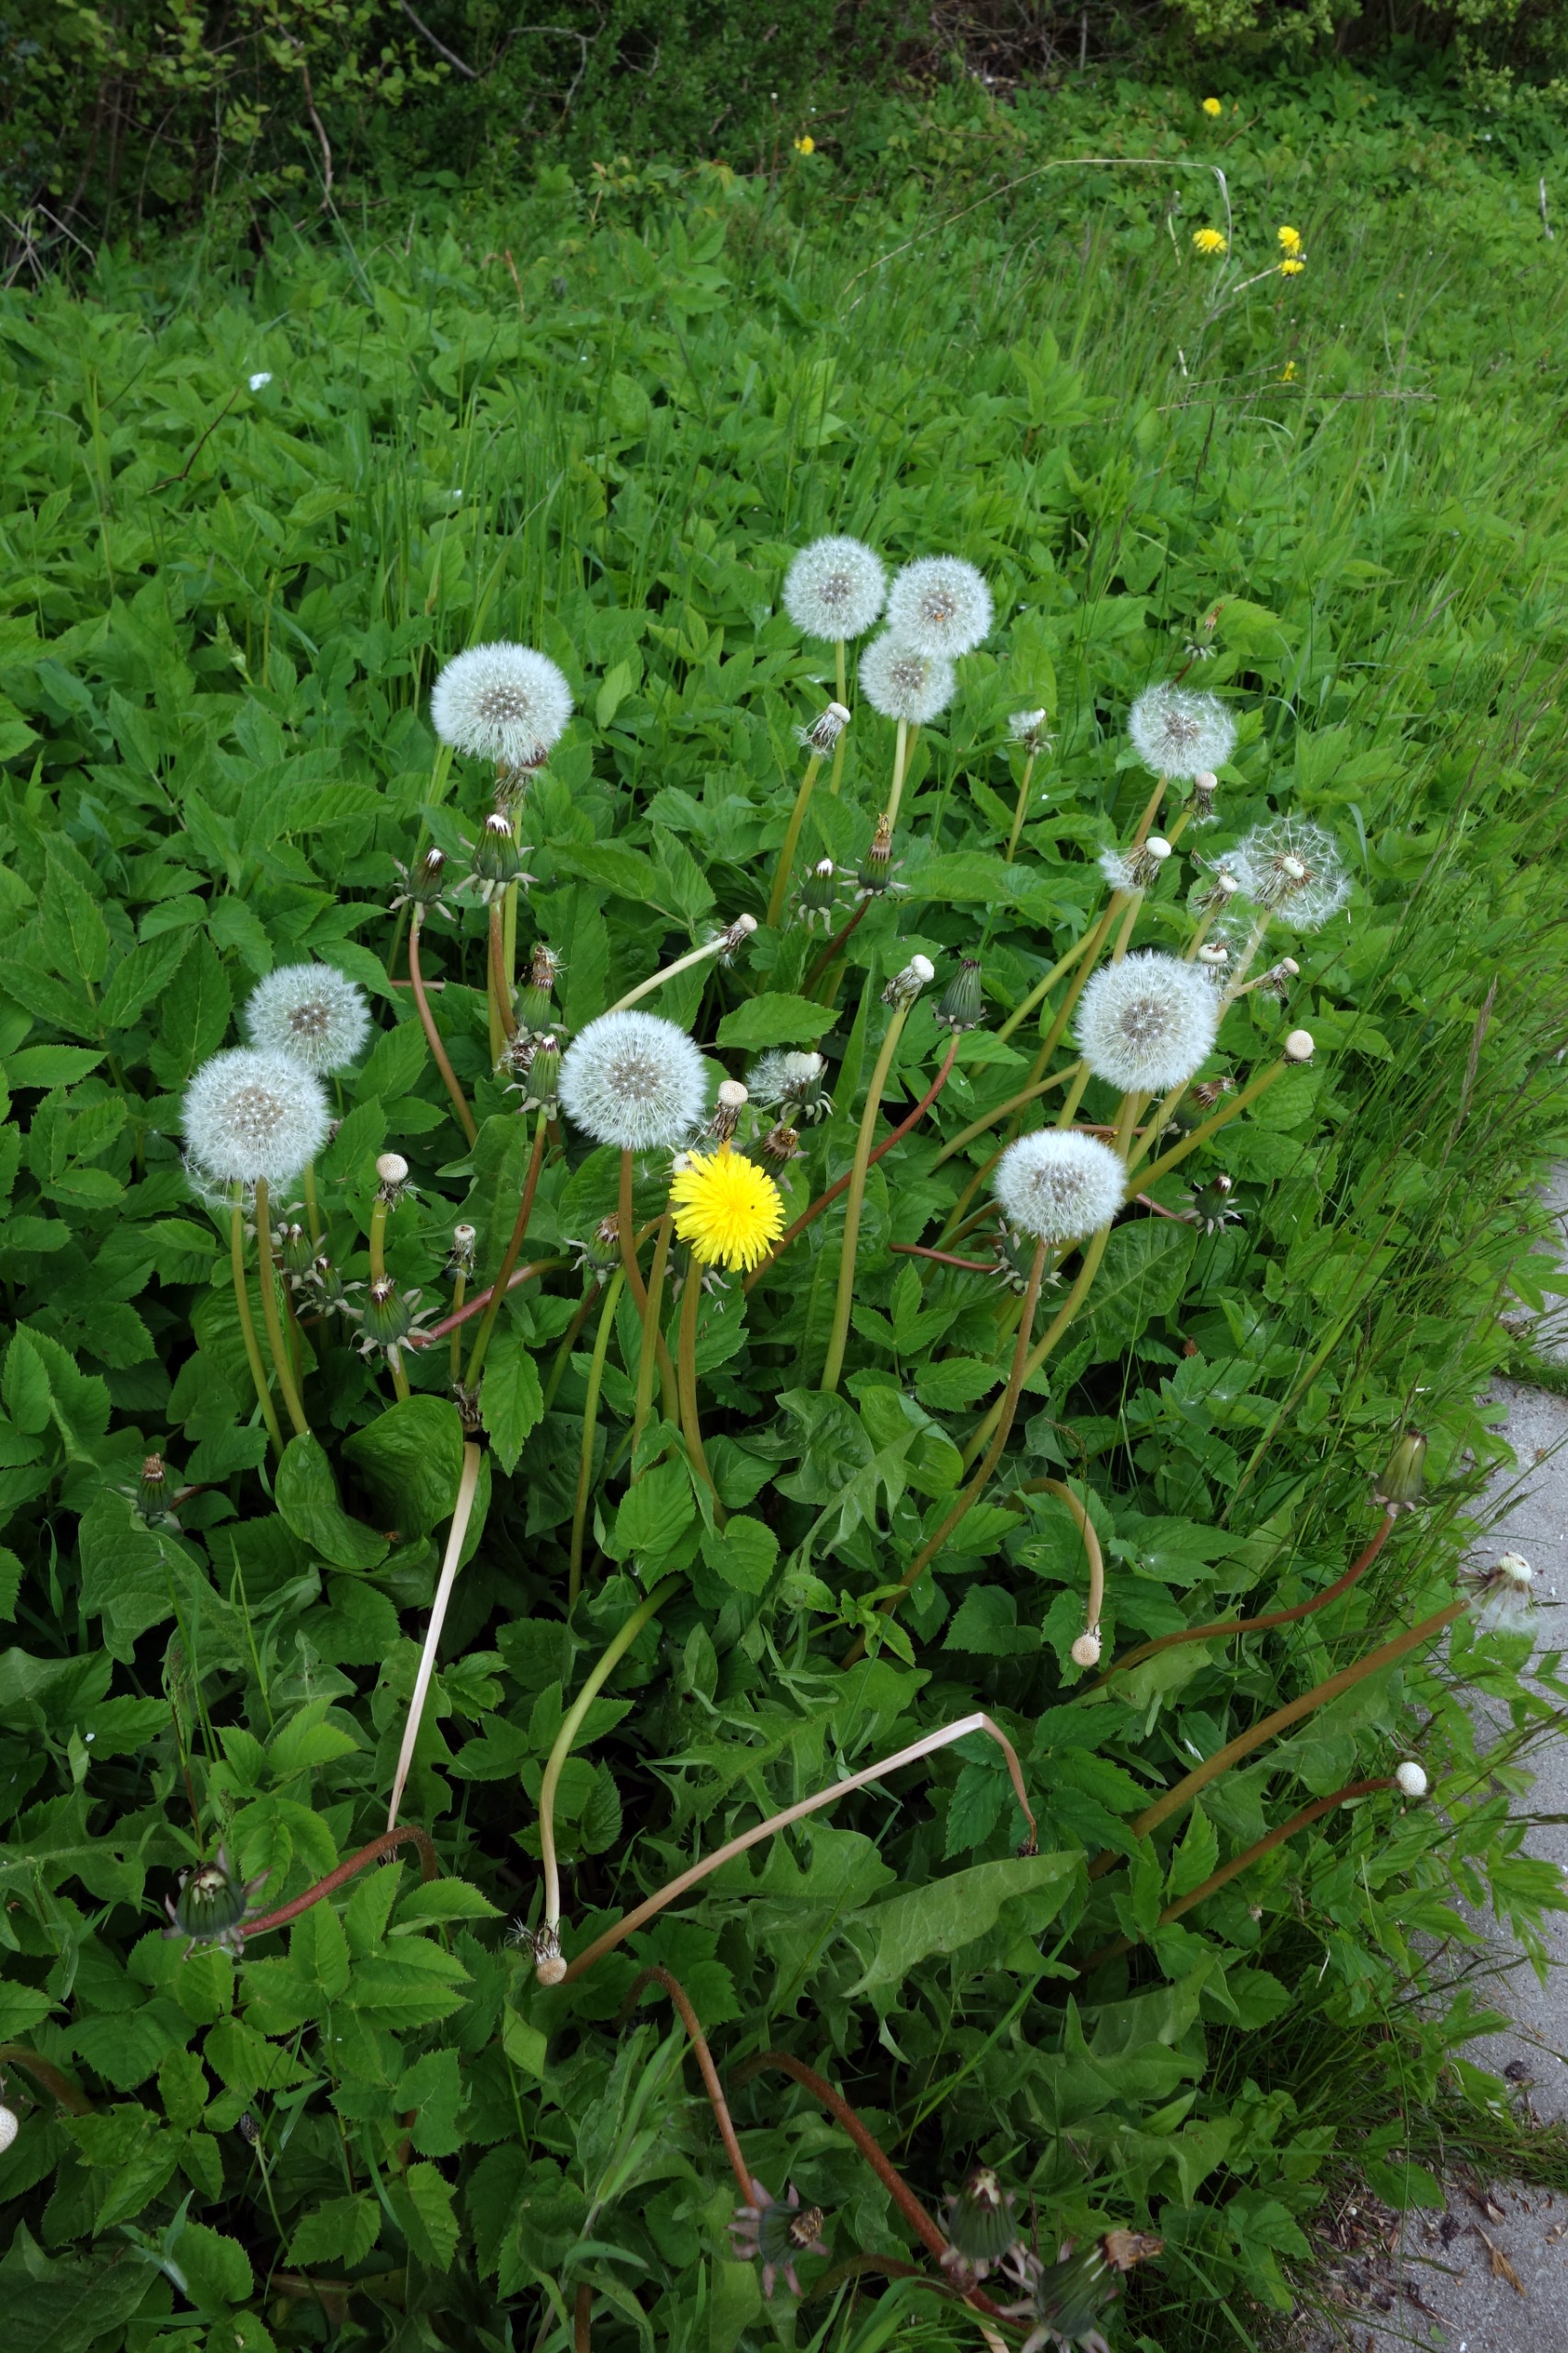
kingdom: Plantae
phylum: Tracheophyta
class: Magnoliopsida
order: Asterales
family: Asteraceae
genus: Taraxacum
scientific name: Taraxacum
